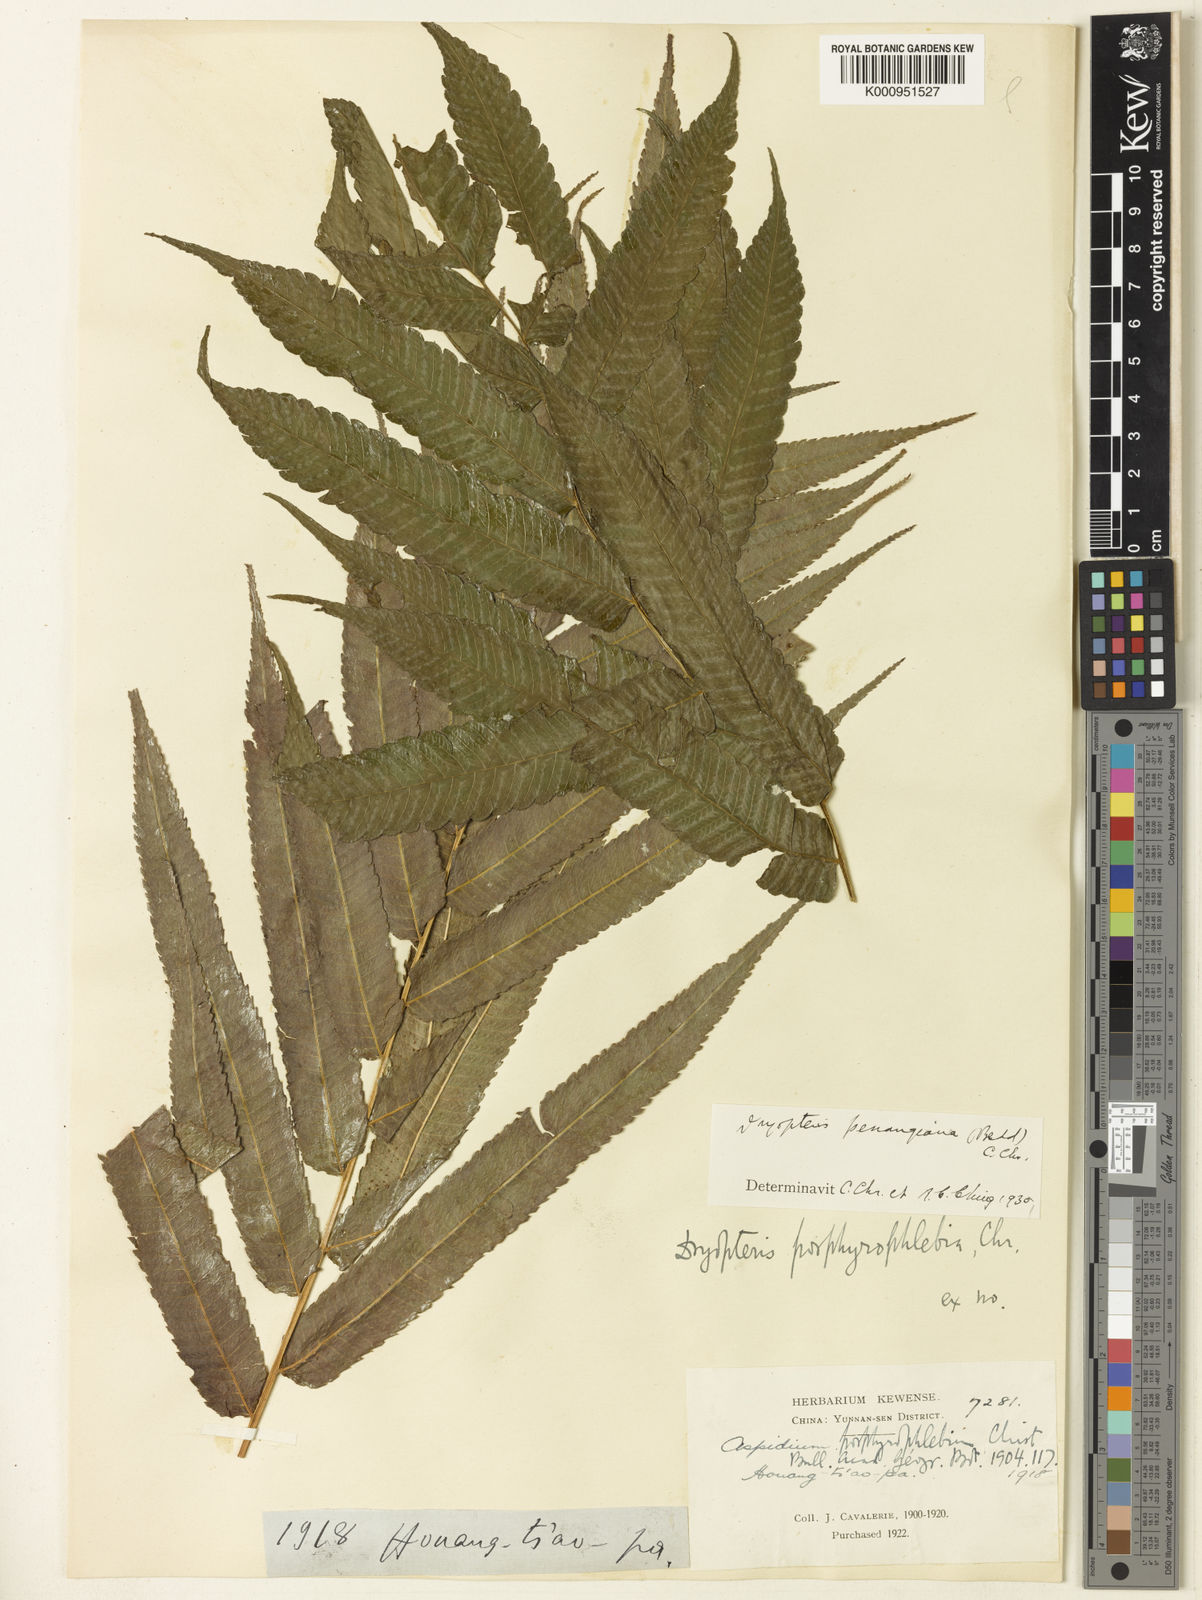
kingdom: Plantae
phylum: Tracheophyta
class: Polypodiopsida
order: Polypodiales
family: Thelypteridaceae
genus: Menisciopsis
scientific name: Menisciopsis penangiana
